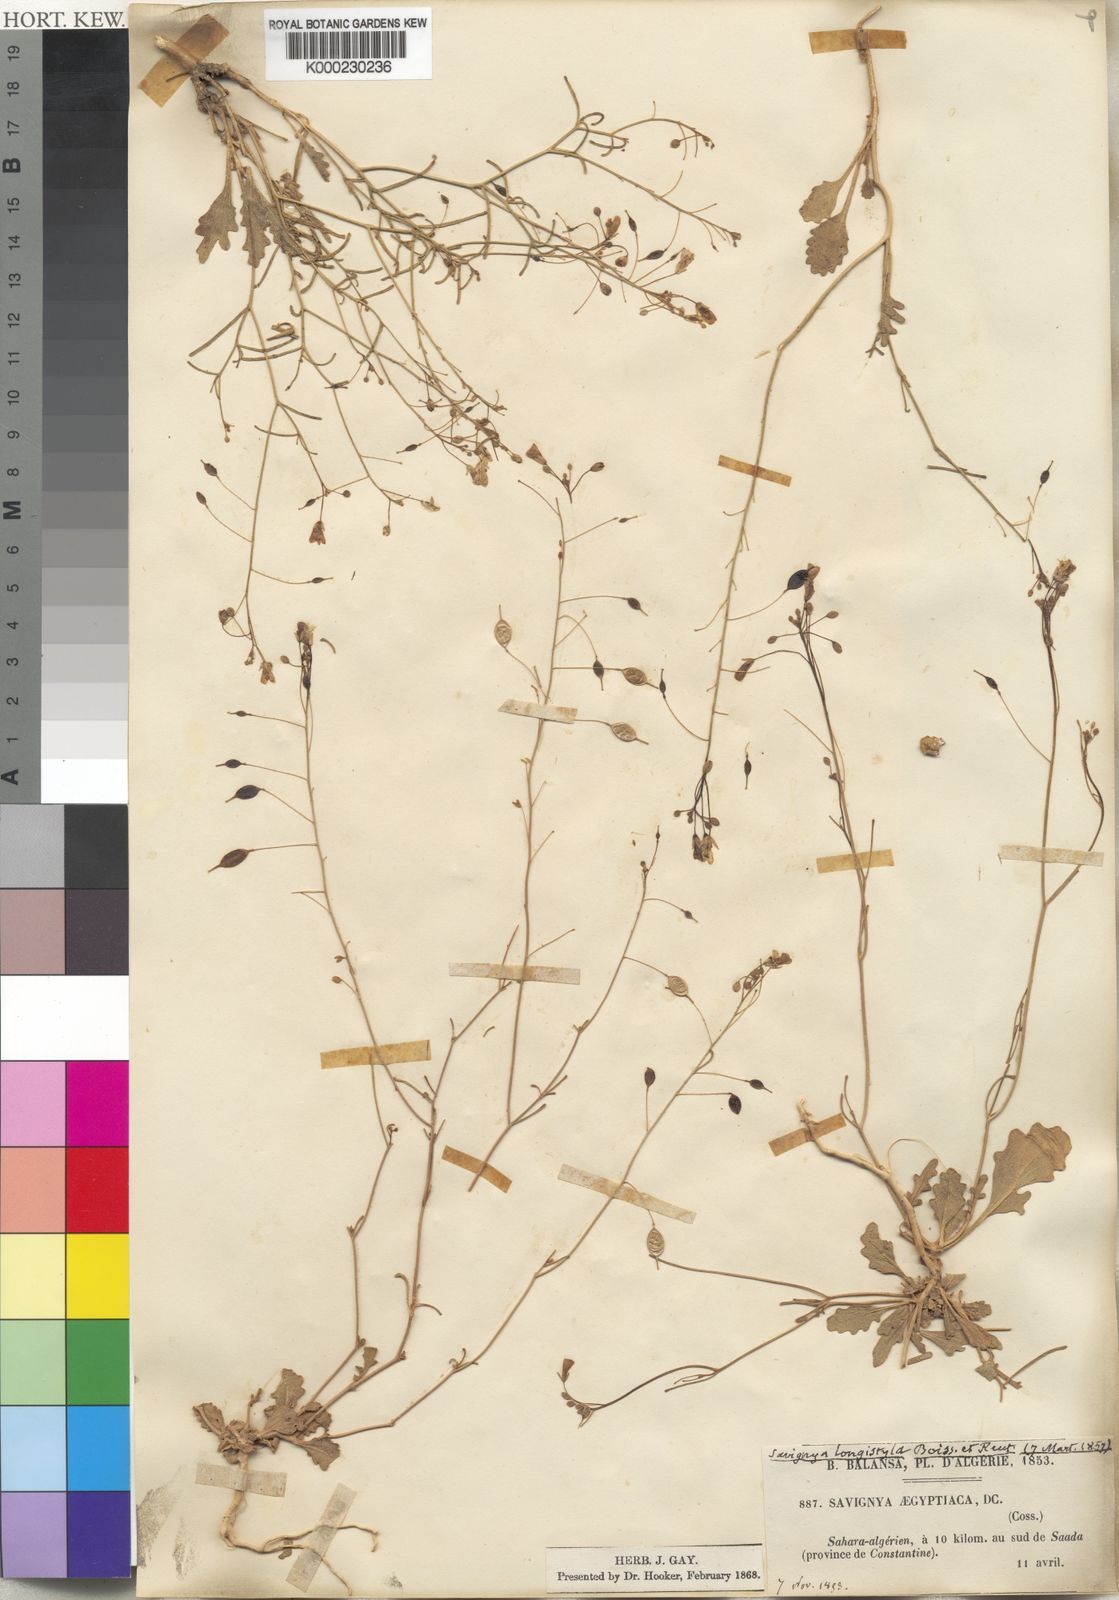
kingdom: Plantae
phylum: Tracheophyta
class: Magnoliopsida
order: Brassicales
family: Brassicaceae
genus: Savignya
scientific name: Savignya parviflora
